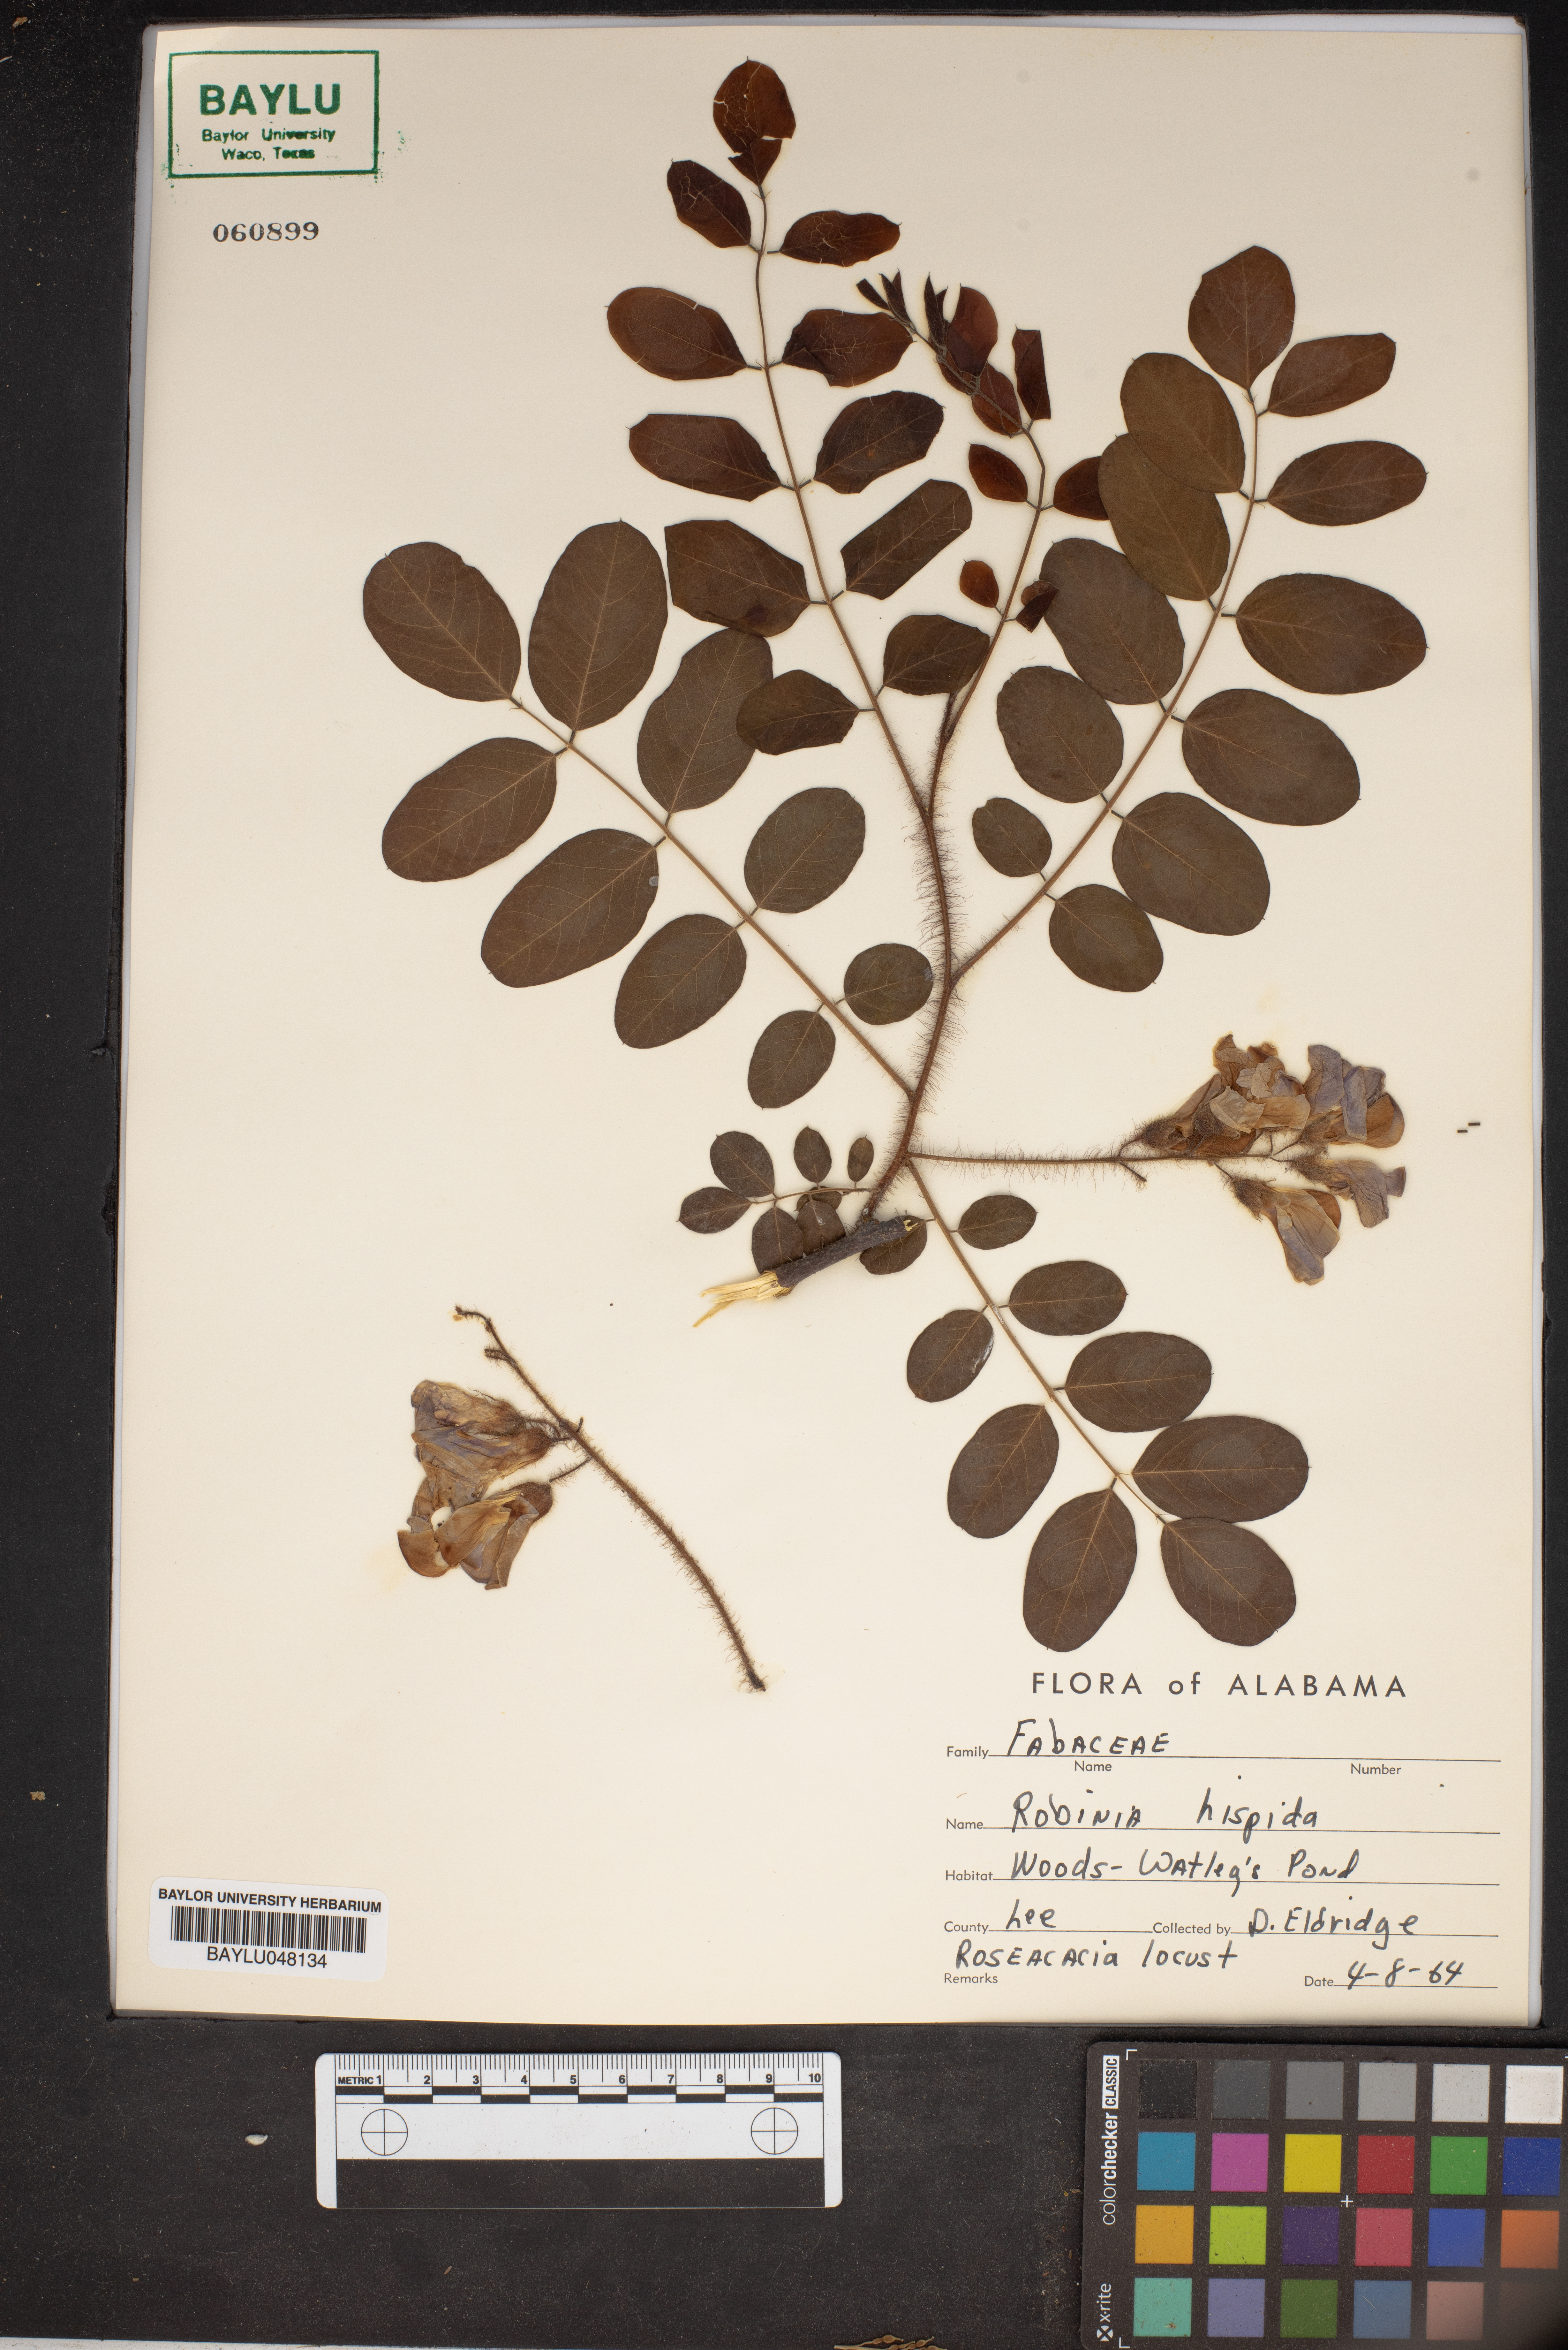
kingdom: Plantae
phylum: Tracheophyta
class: Magnoliopsida
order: Fabales
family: Fabaceae
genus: Robinia
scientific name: Robinia hispida
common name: Bristly locust
